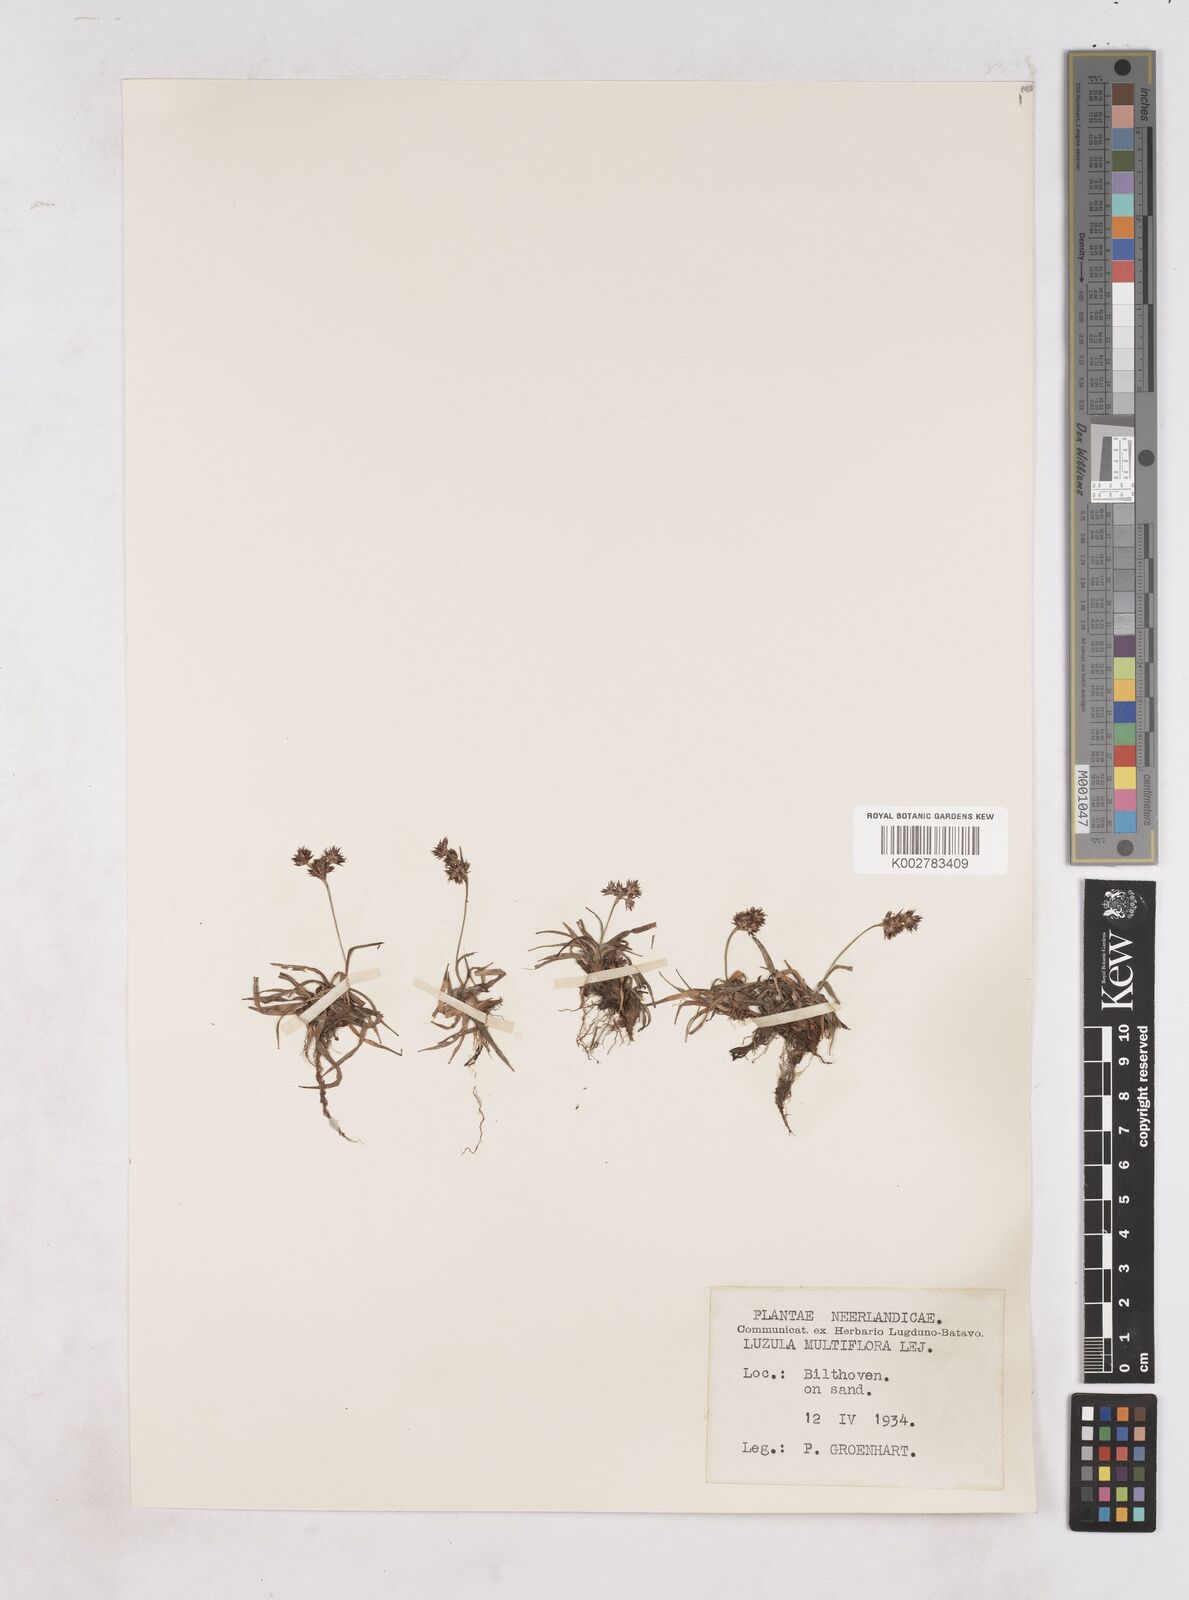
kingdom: Plantae
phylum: Tracheophyta
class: Liliopsida
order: Poales
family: Juncaceae
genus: Luzula
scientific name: Luzula multiflora
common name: Heath wood-rush
